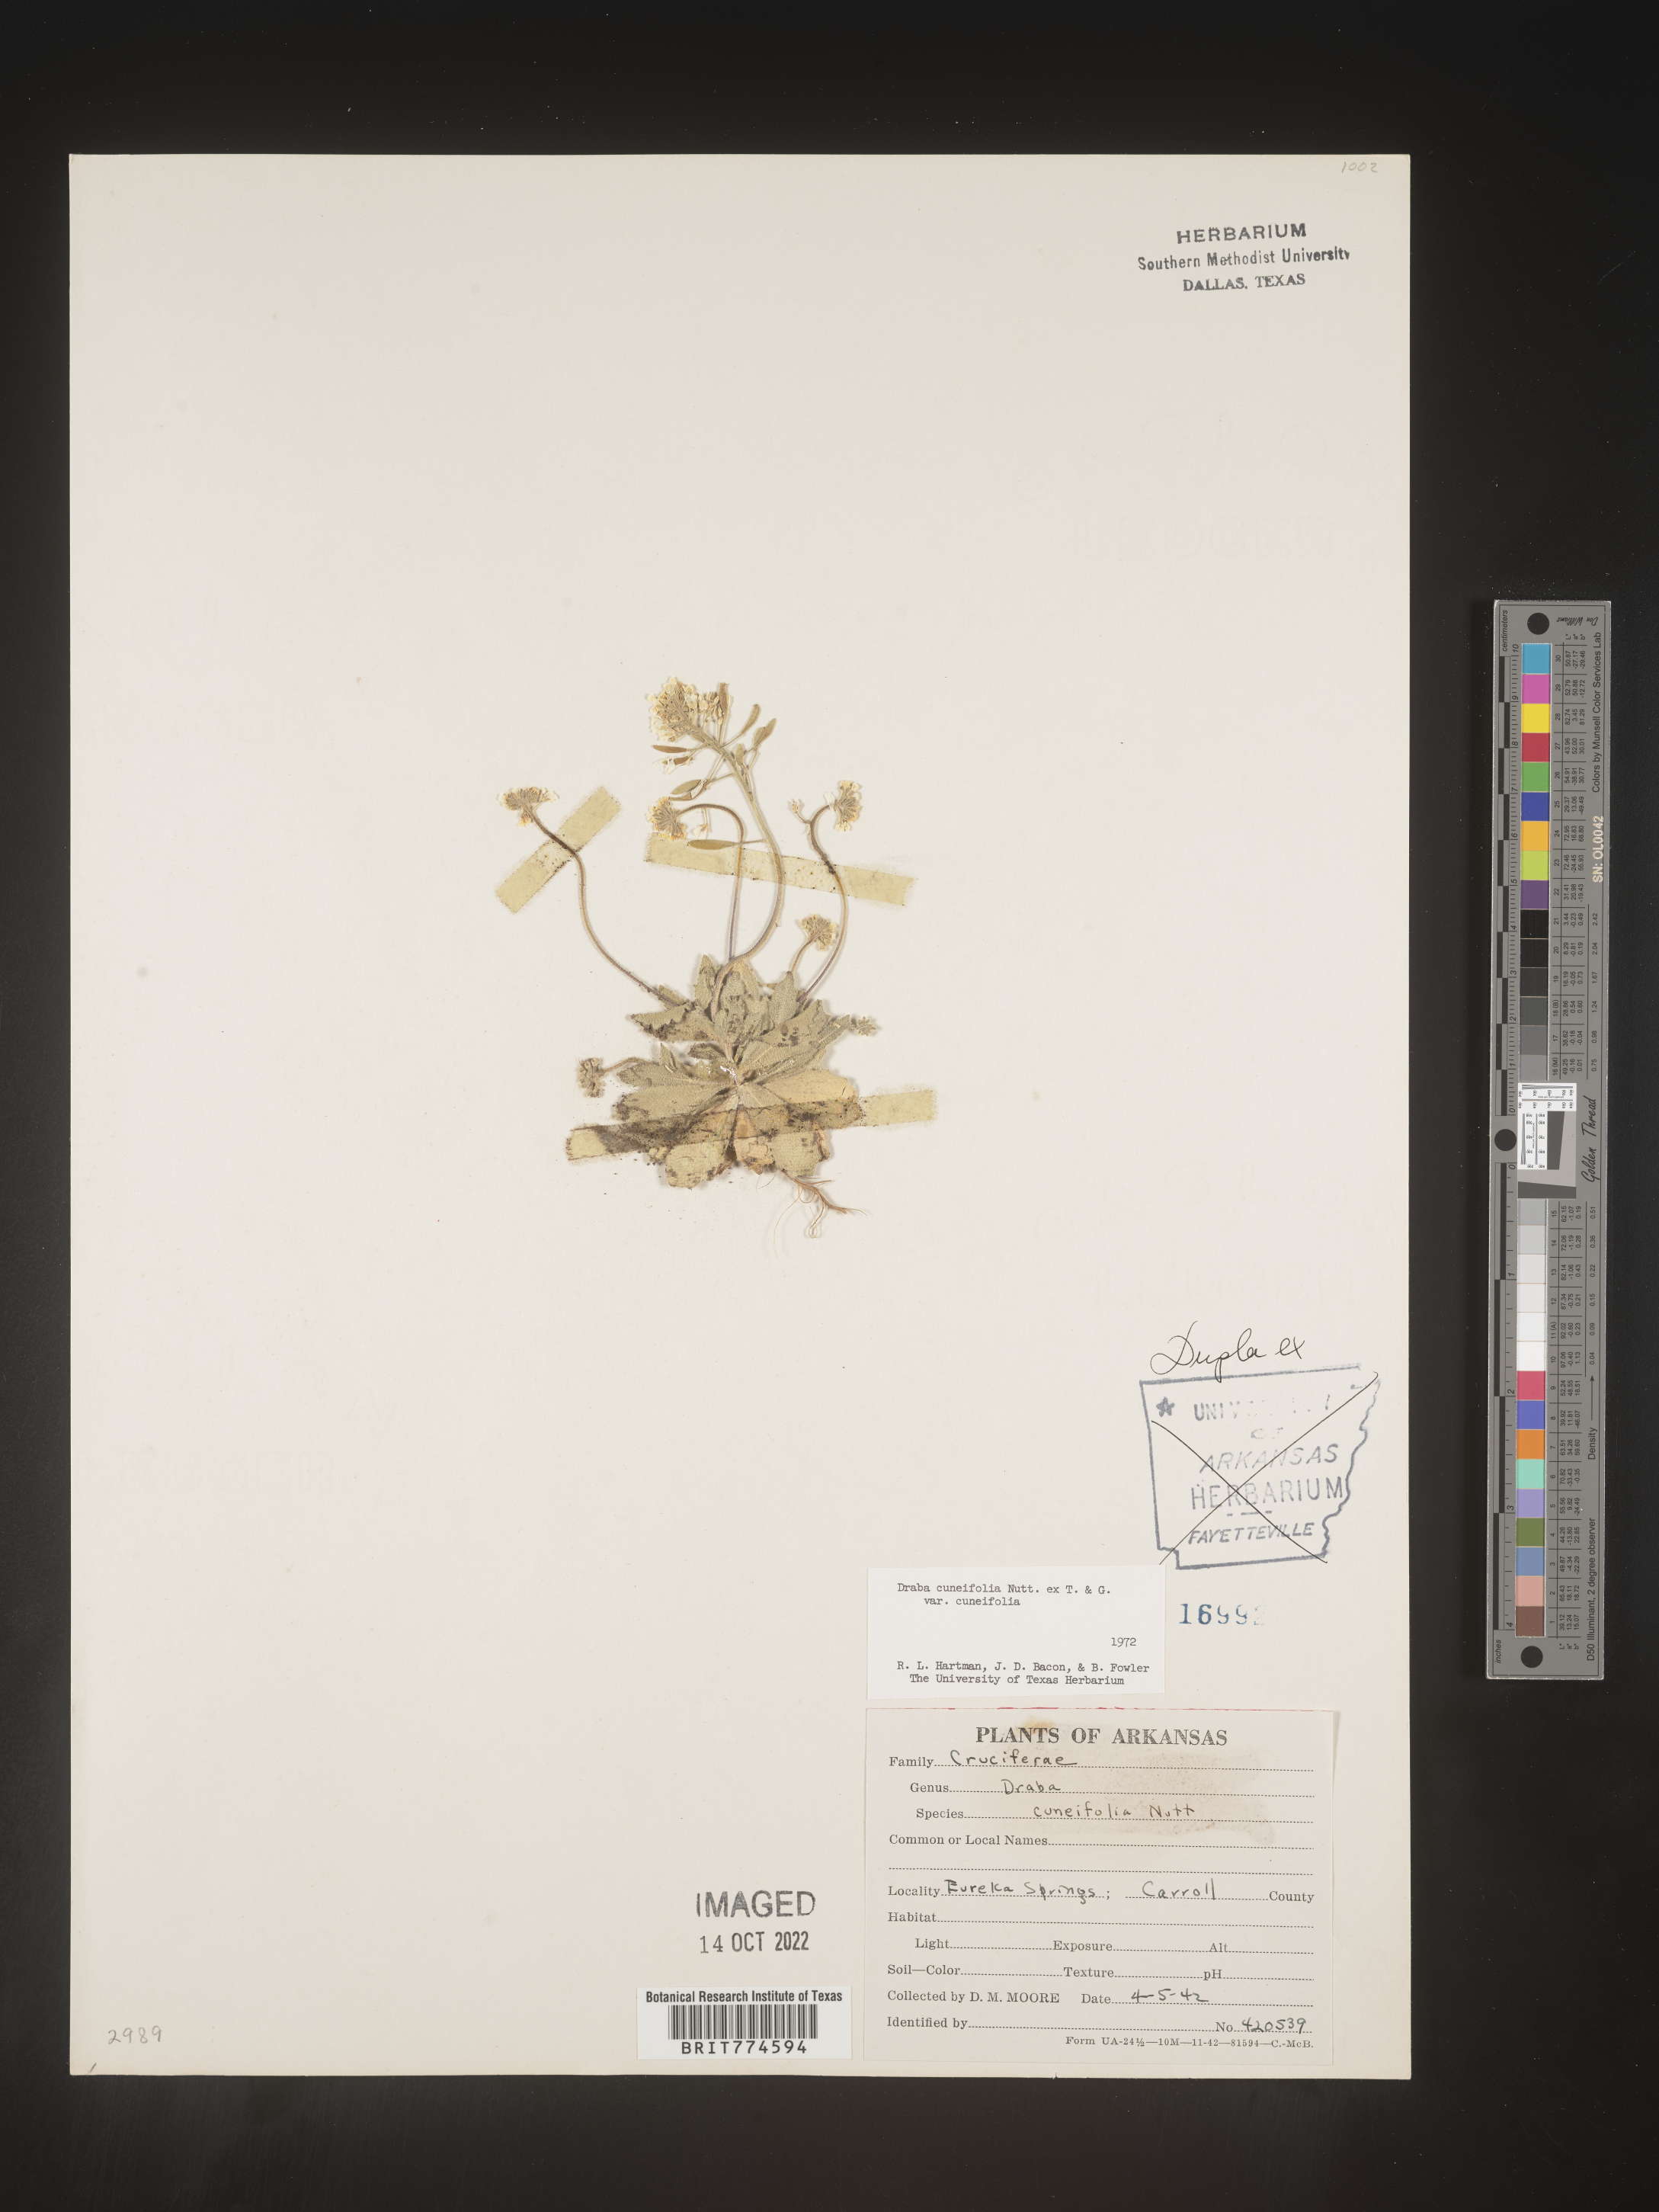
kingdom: Plantae
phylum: Tracheophyta
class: Magnoliopsida
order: Brassicales
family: Brassicaceae
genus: Tomostima
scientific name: Tomostima cuneifolia
